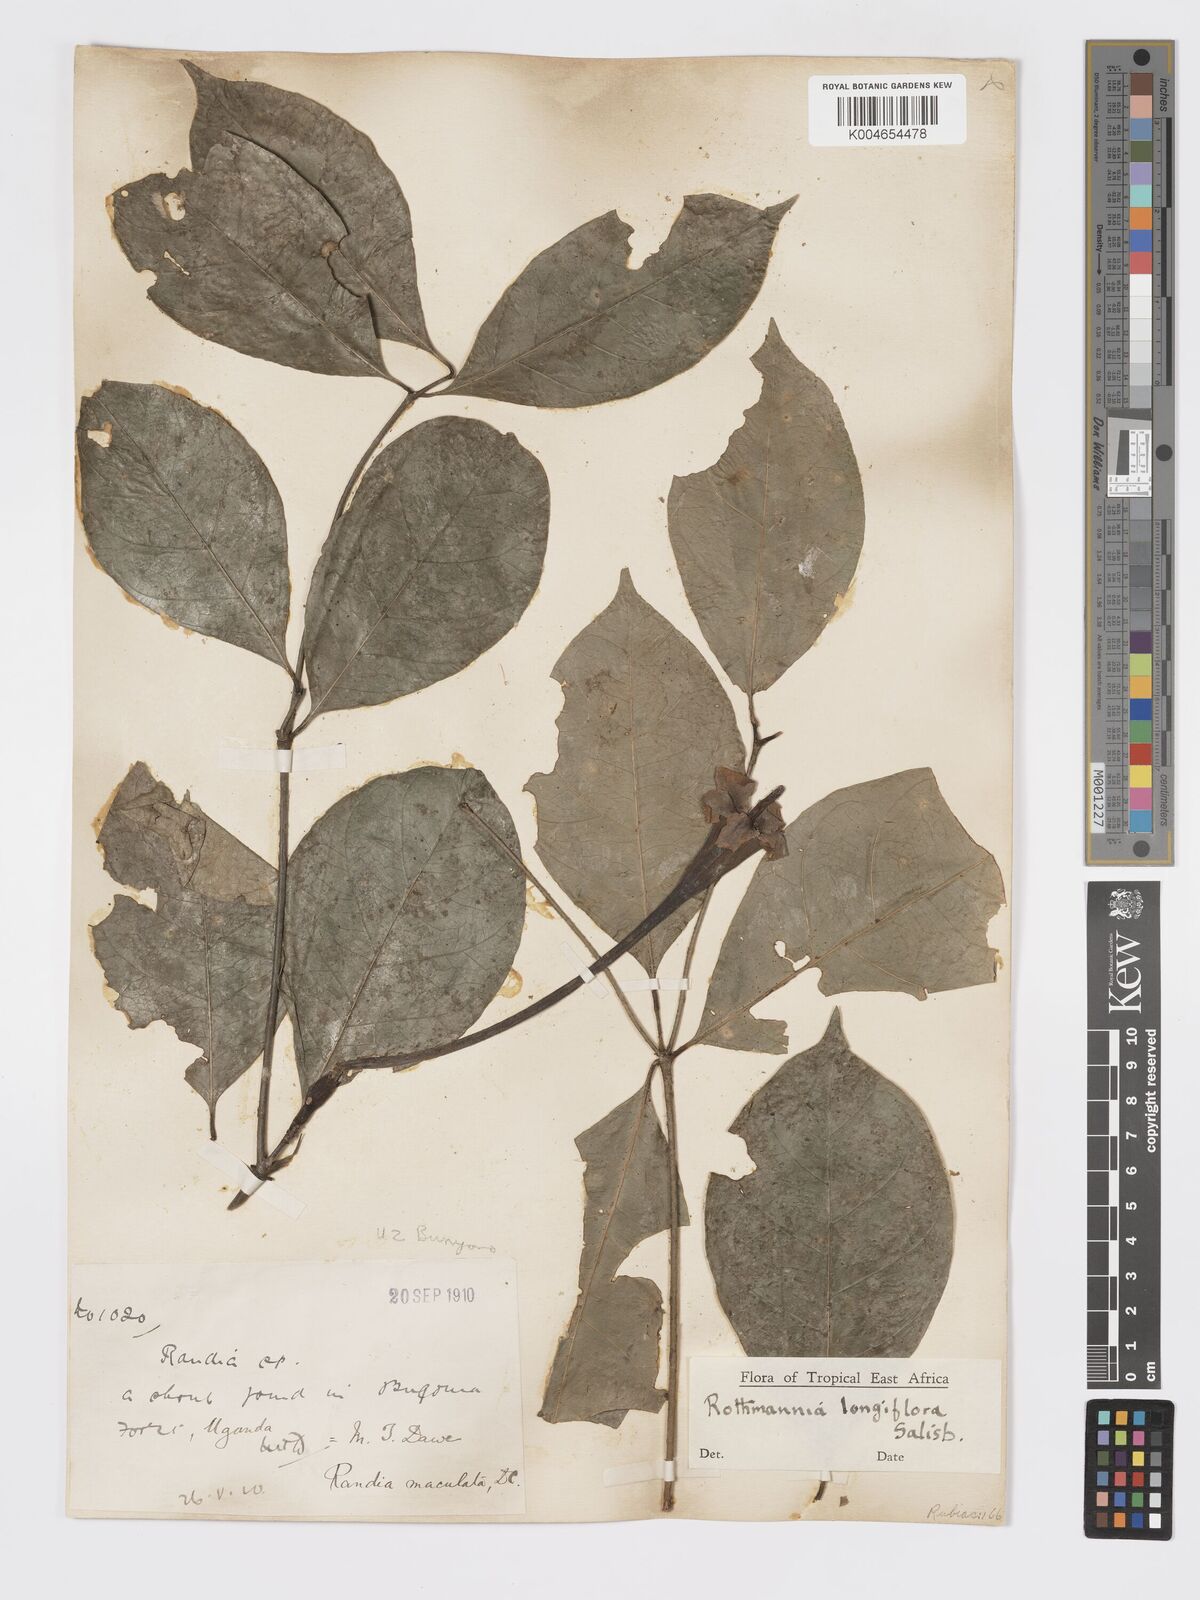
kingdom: Plantae
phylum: Tracheophyta
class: Magnoliopsida
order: Gentianales
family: Rubiaceae
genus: Rothmannia
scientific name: Rothmannia longiflora
